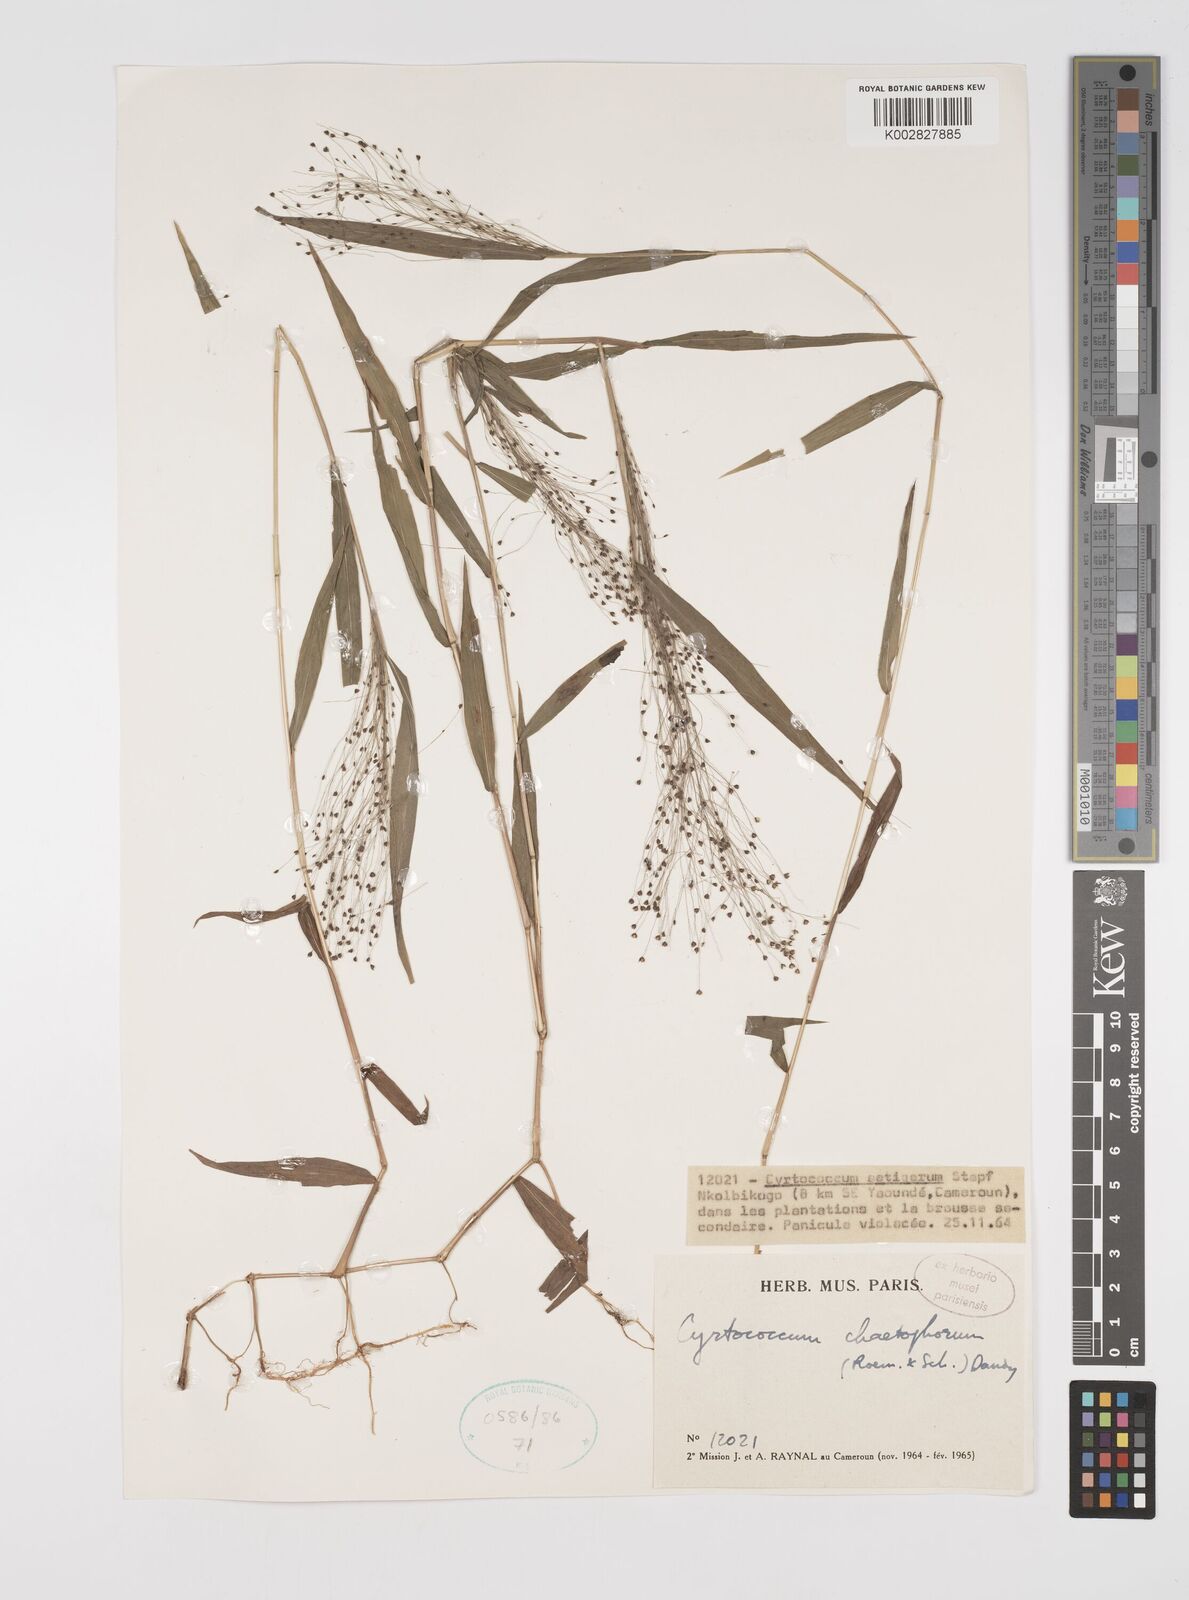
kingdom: Plantae
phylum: Tracheophyta
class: Liliopsida
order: Poales
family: Poaceae
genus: Cyrtococcum
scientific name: Cyrtococcum chaetophoron
